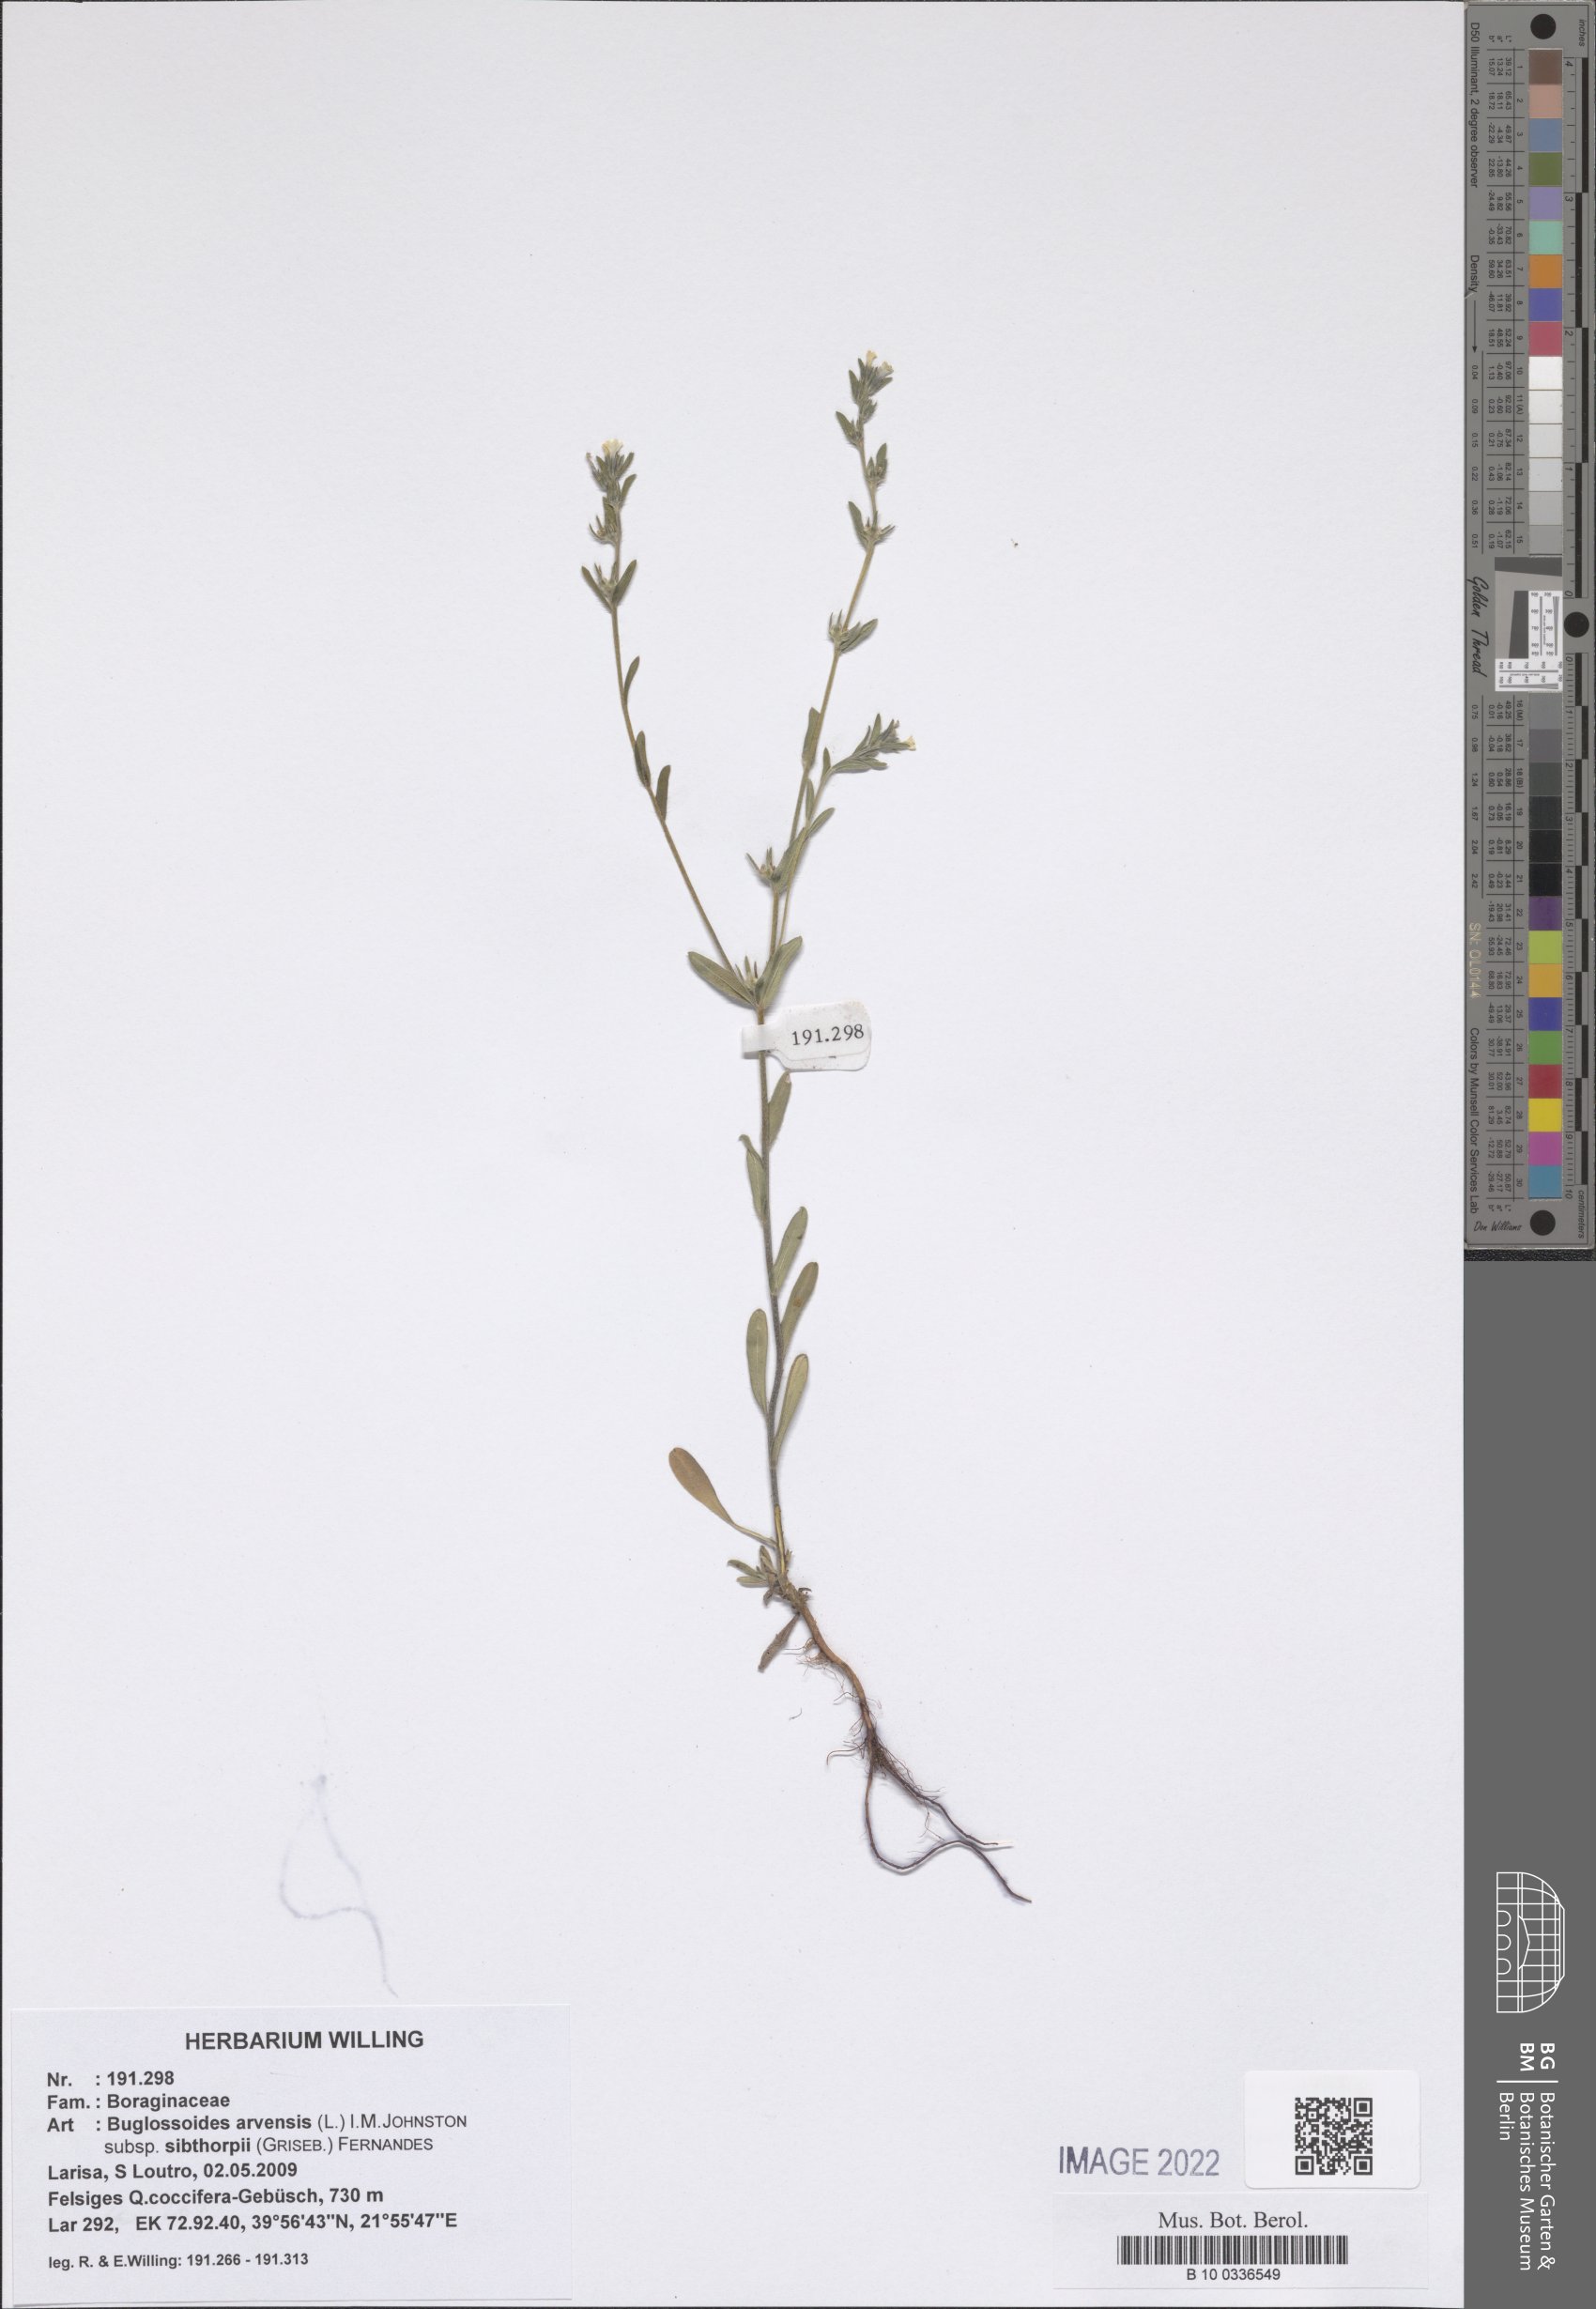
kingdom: Plantae
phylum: Tracheophyta
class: Magnoliopsida
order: Boraginales
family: Boraginaceae
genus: Buglossoides
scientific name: Buglossoides arvensis
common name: Corn gromwell
